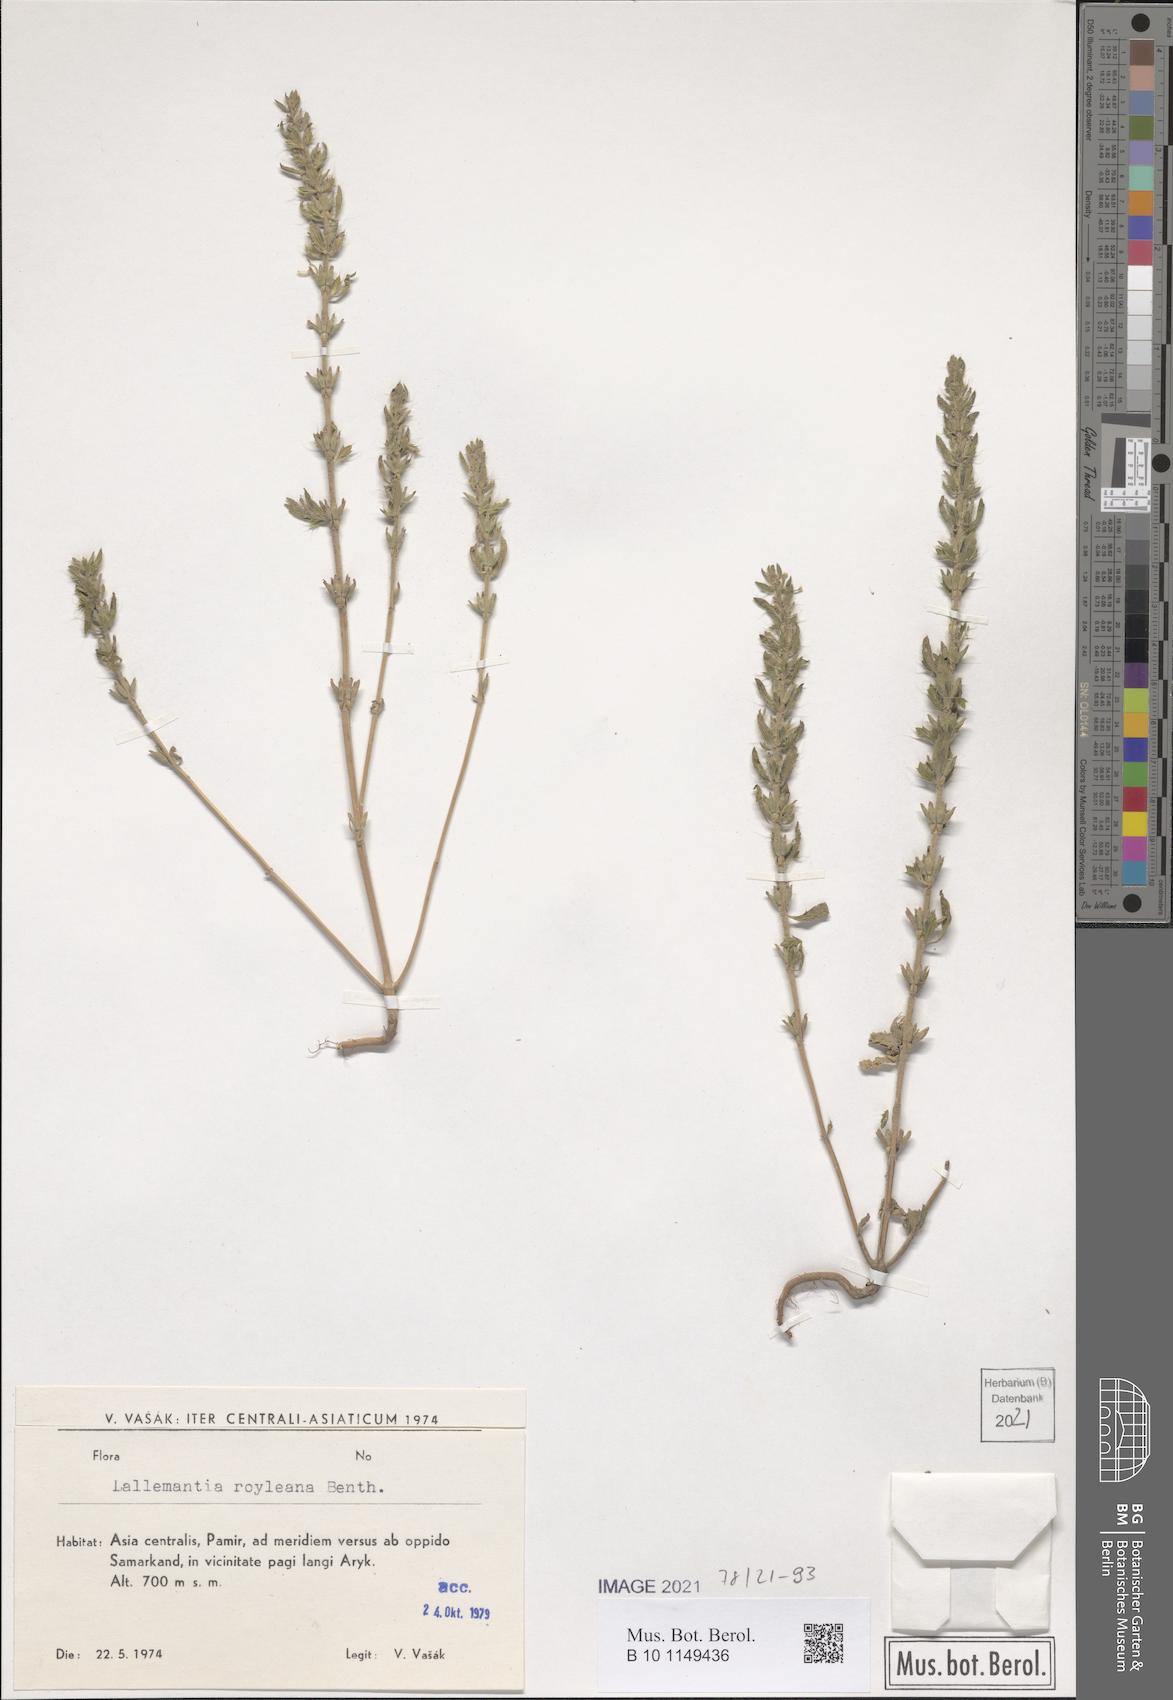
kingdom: Plantae
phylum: Tracheophyta
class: Magnoliopsida
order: Lamiales
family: Lamiaceae
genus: Lallemantia
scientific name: Lallemantia royleana
